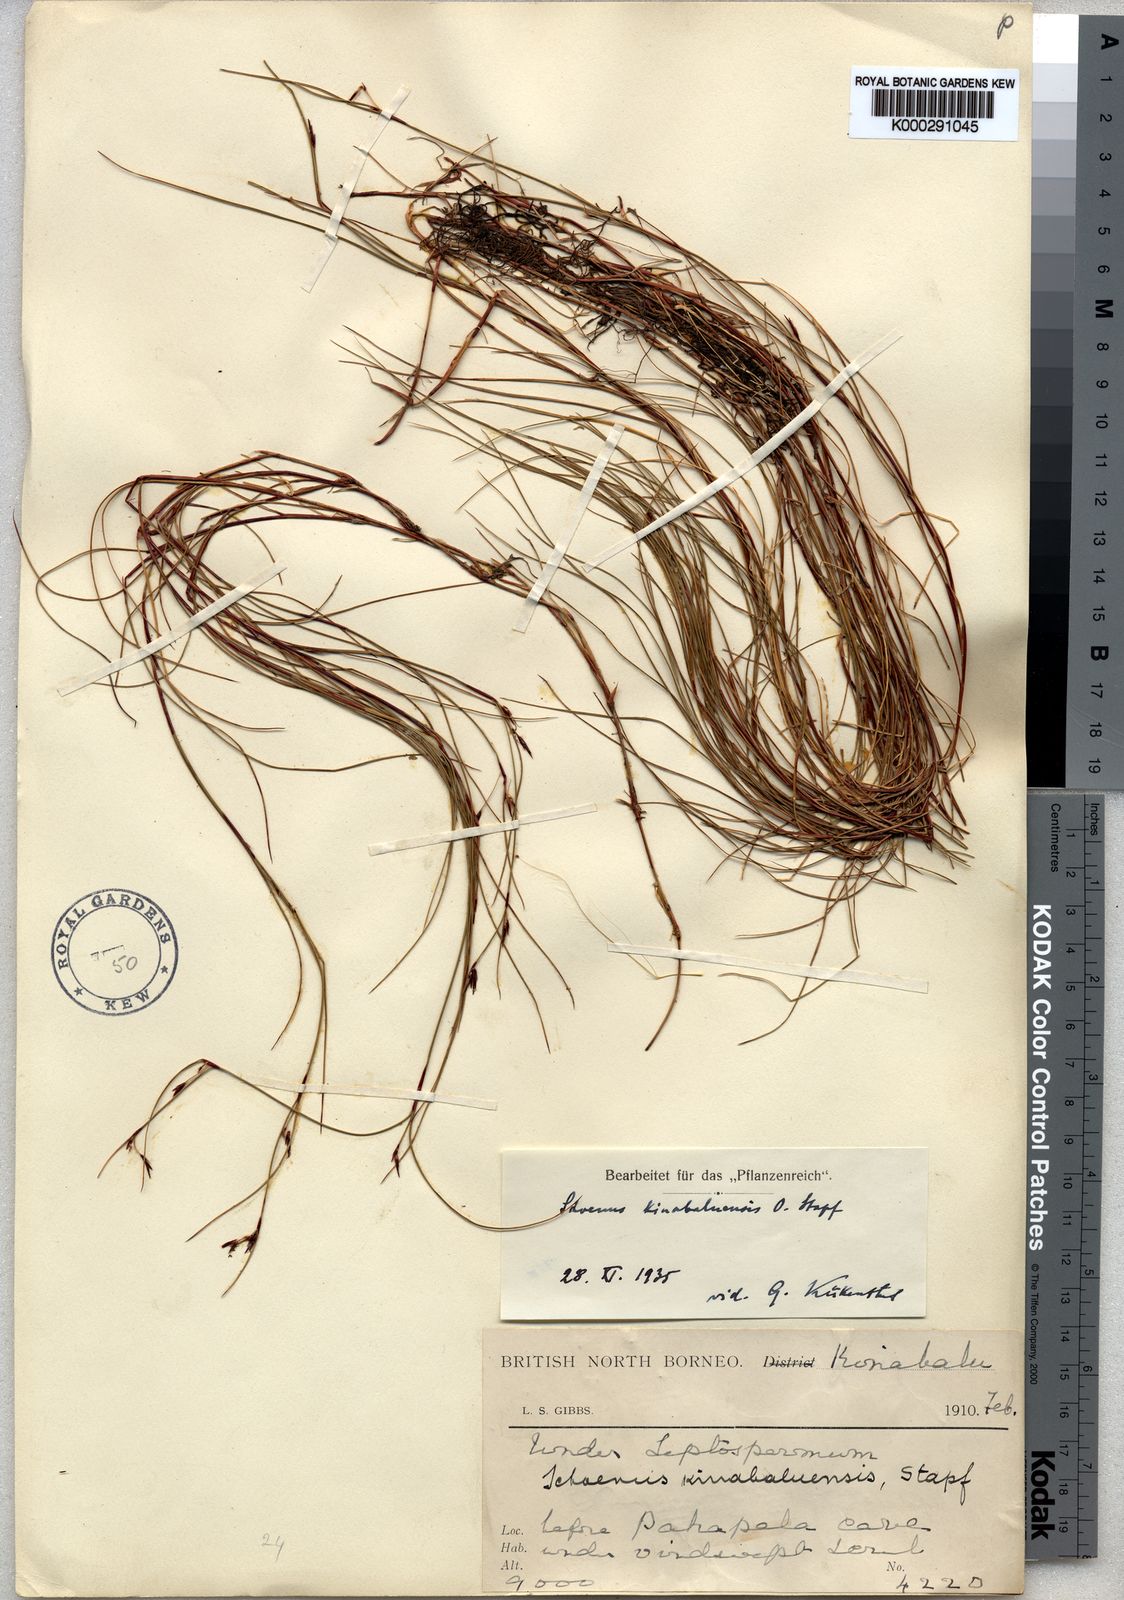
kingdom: Plantae
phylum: Tracheophyta
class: Liliopsida
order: Poales
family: Cyperaceae
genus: Schoenus
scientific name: Schoenus curvulus
